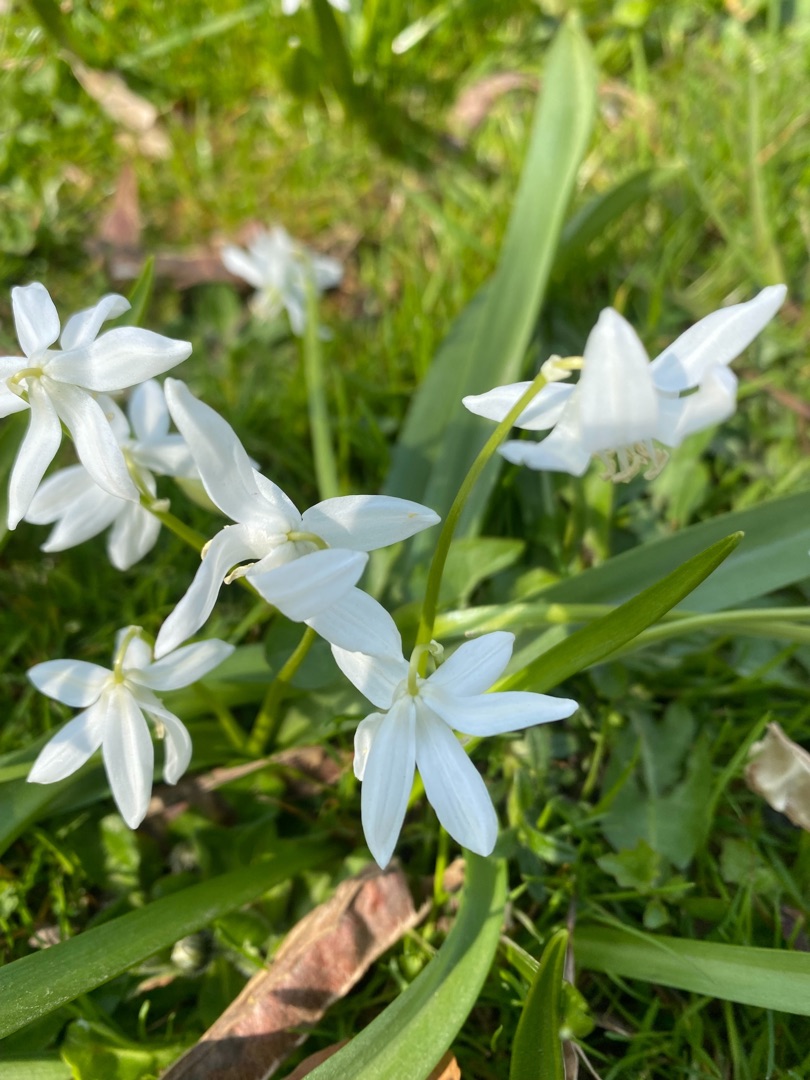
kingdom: Plantae
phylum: Tracheophyta
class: Liliopsida
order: Asparagales
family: Asparagaceae
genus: Scilla
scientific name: Scilla siberica
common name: Russisk skilla
